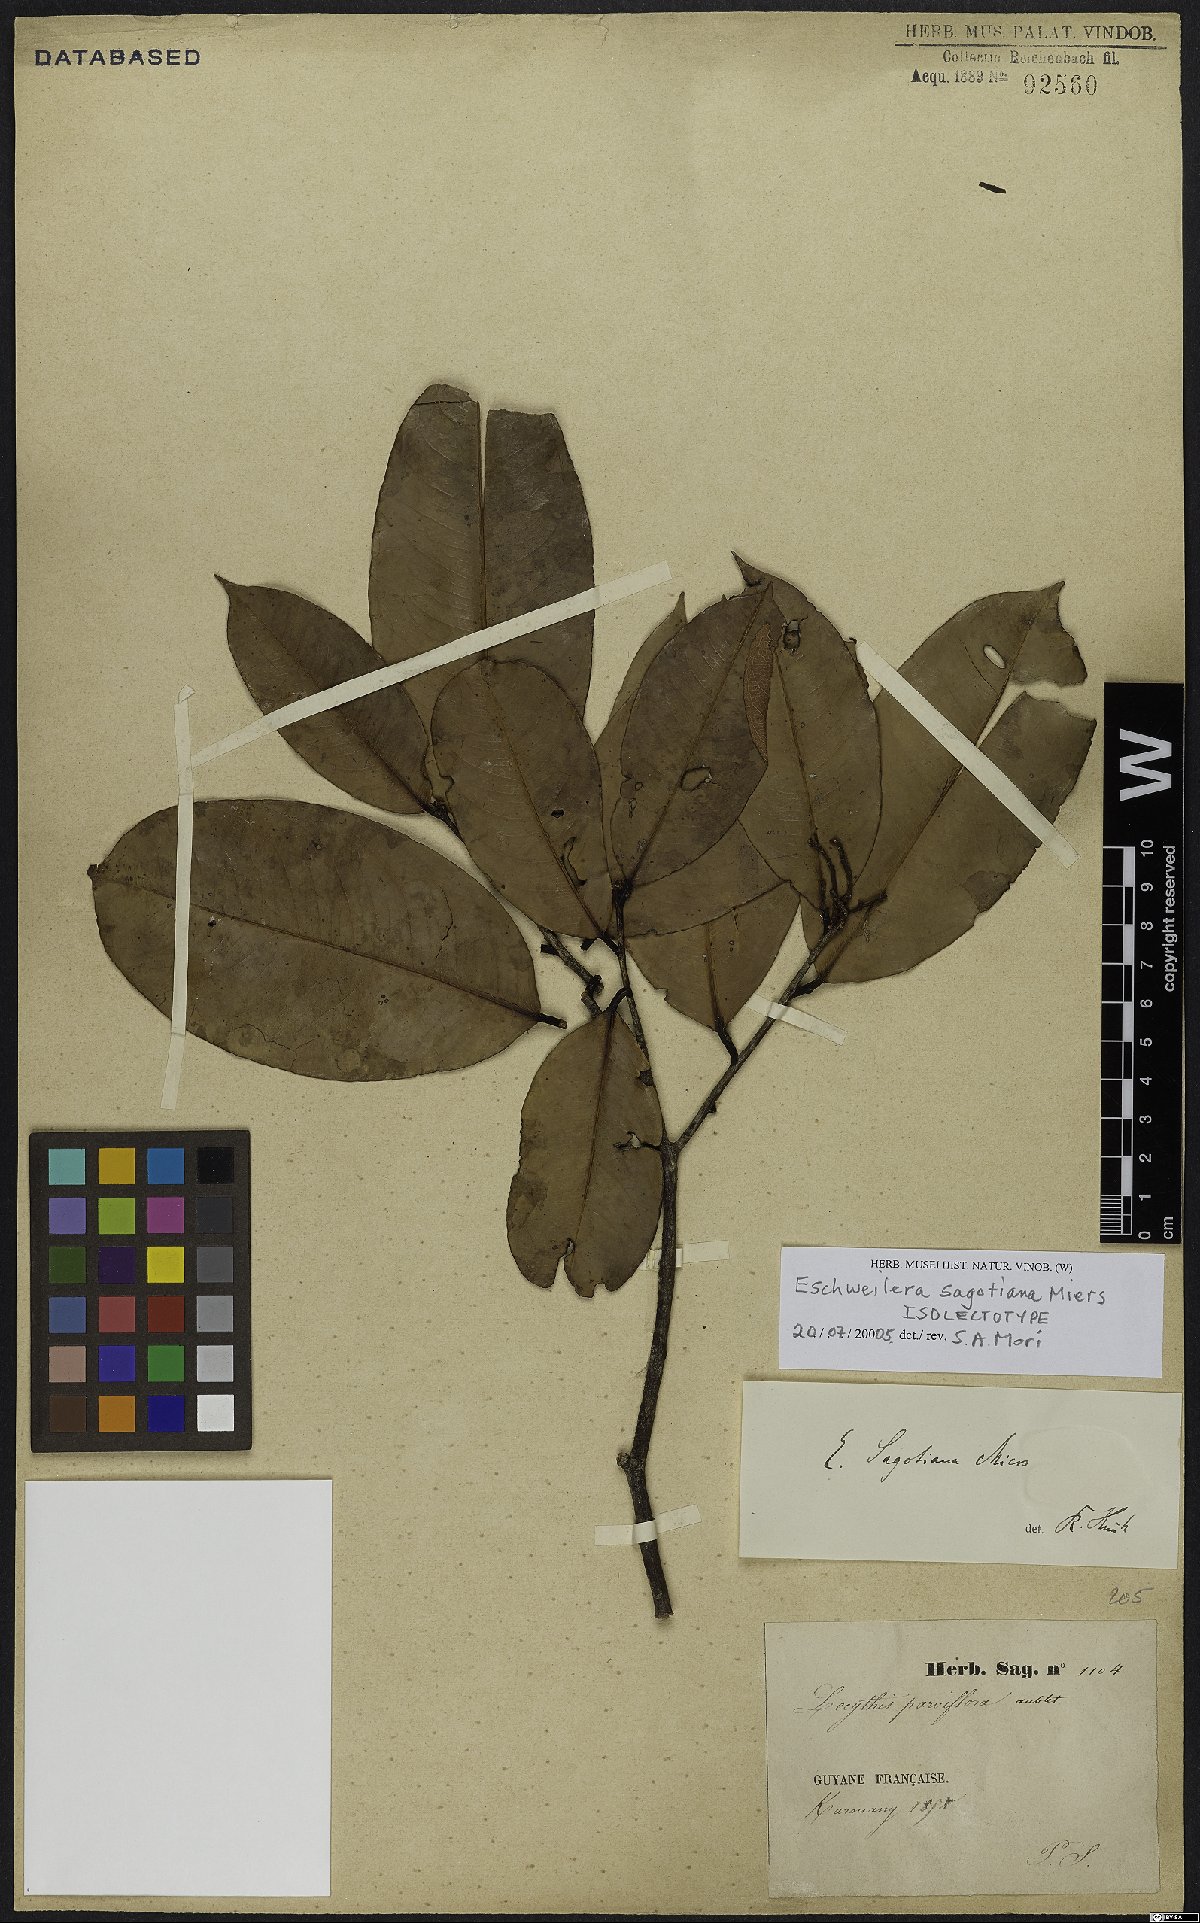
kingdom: Plantae
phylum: Tracheophyta
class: Magnoliopsida
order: Ericales
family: Lecythidaceae
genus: Eschweilera
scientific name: Eschweilera sagotiana
